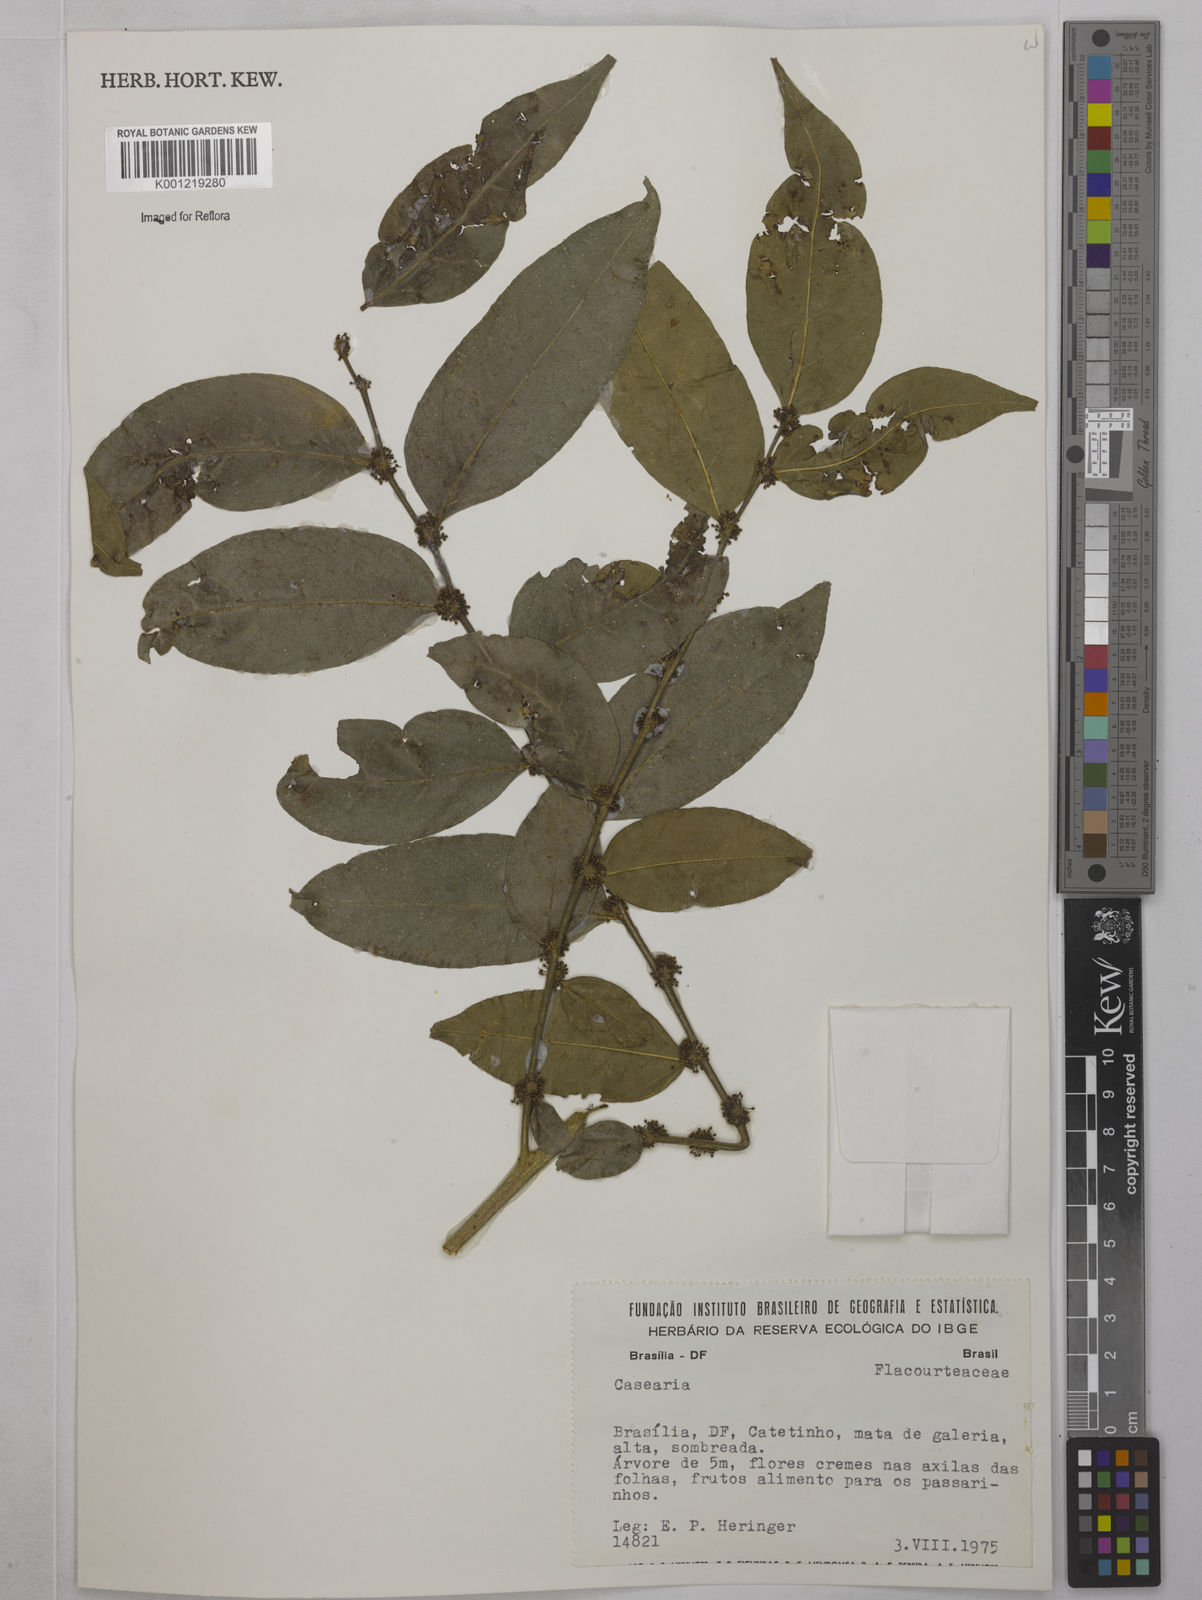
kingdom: Plantae
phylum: Tracheophyta
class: Magnoliopsida
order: Malpighiales
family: Salicaceae
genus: Casearia
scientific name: Casearia
